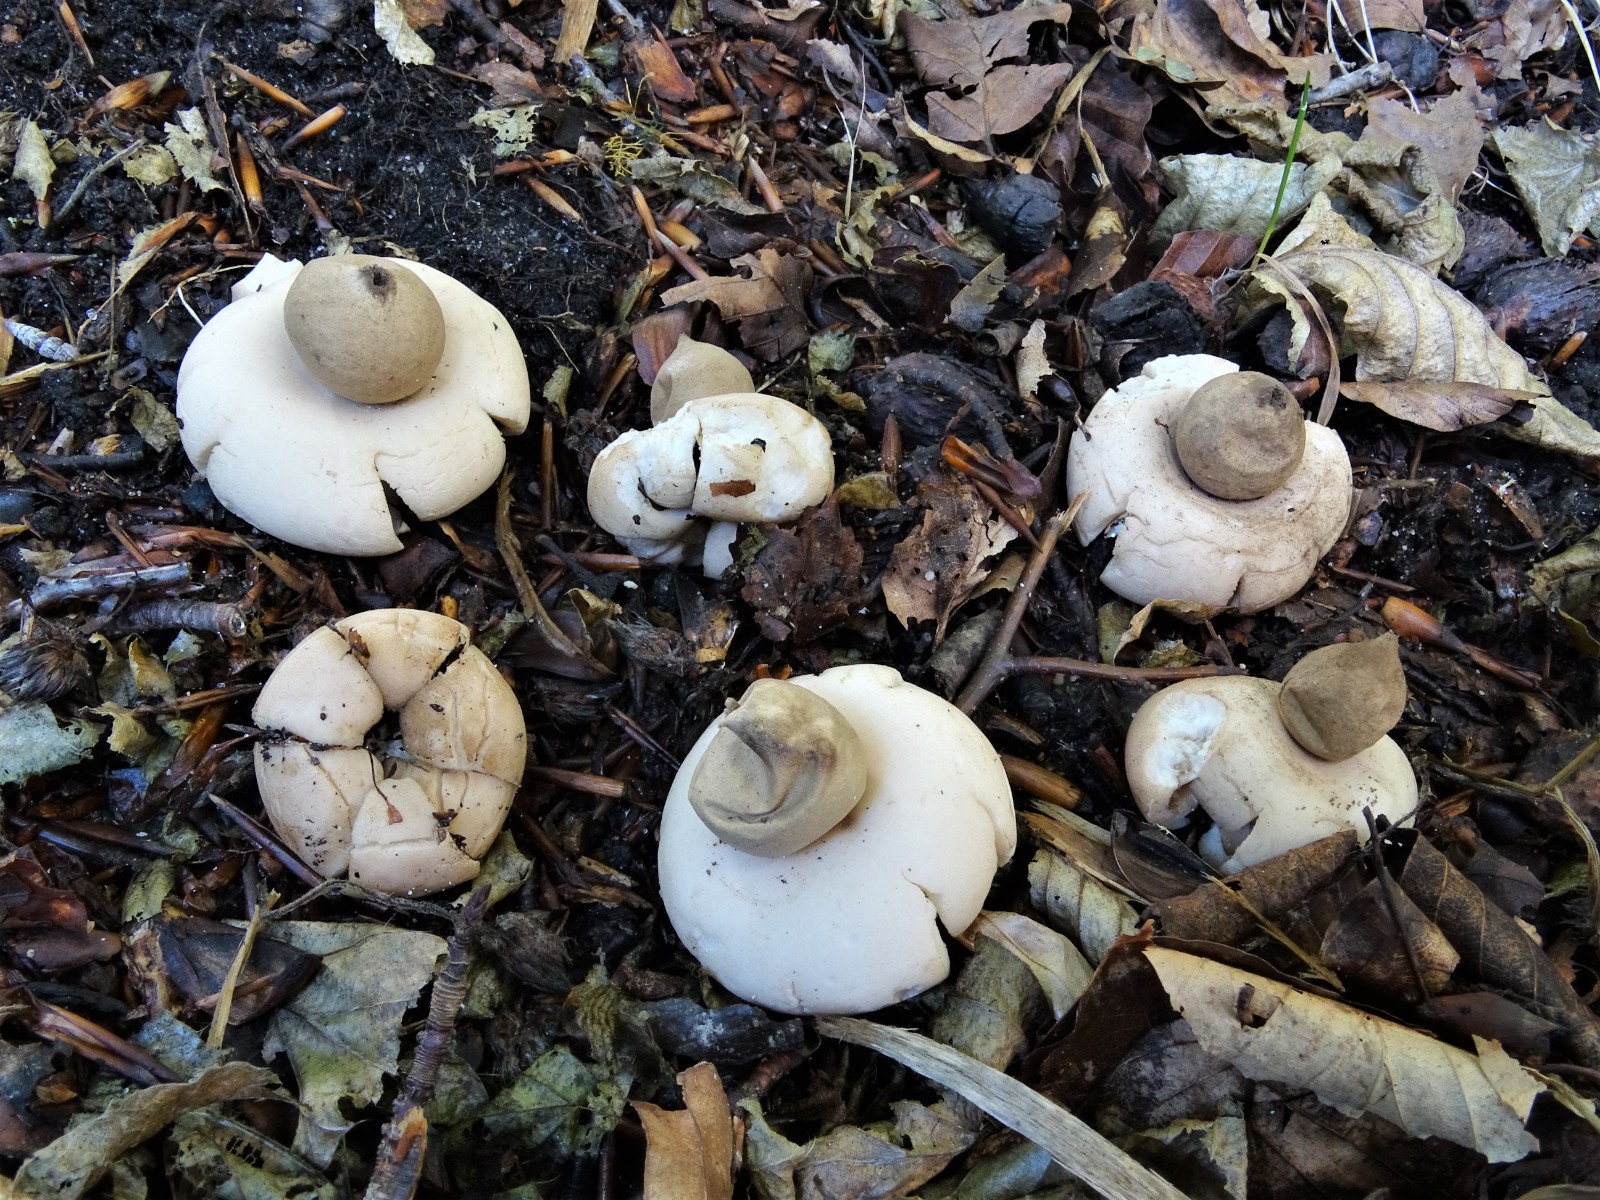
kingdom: Fungi
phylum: Basidiomycota
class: Agaricomycetes
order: Geastrales
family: Geastraceae
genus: Geastrum
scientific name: Geastrum fimbriatum
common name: frynset stjernebold
